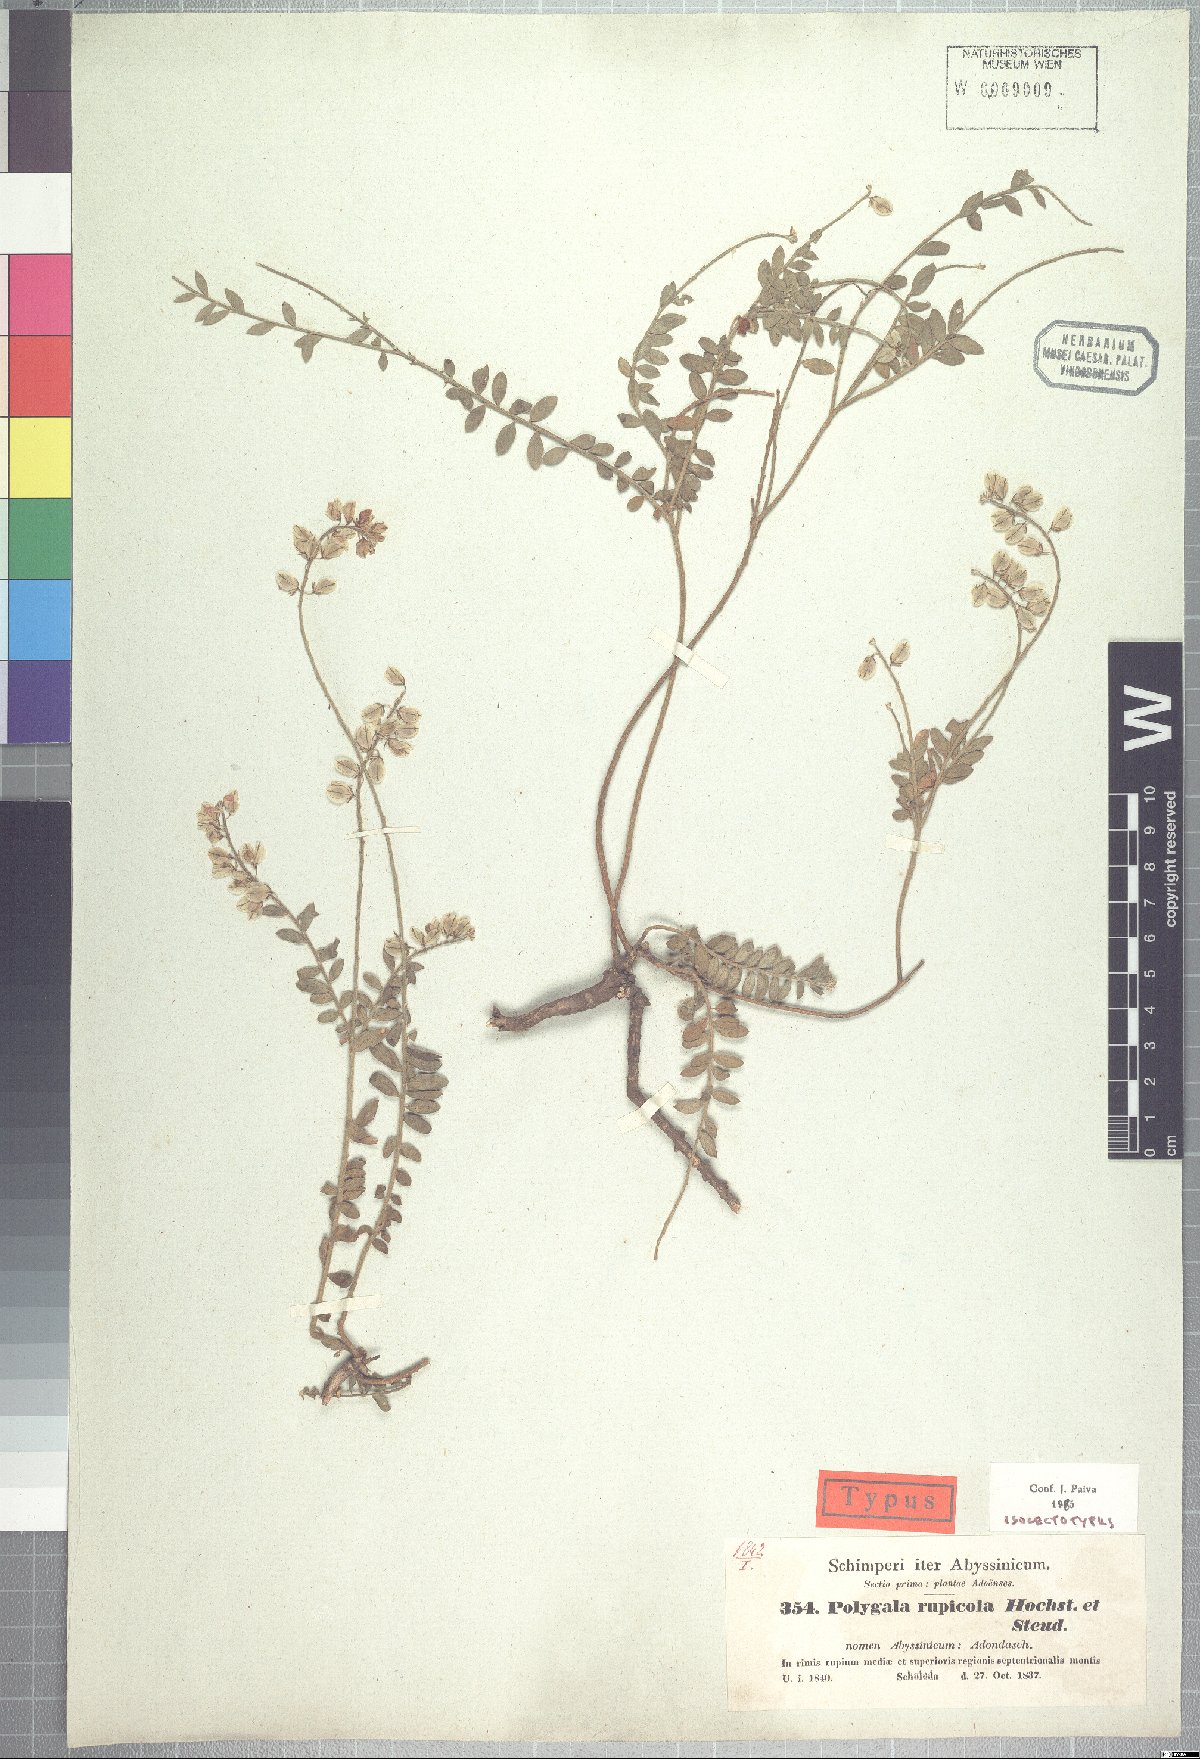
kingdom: Plantae
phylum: Tracheophyta
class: Magnoliopsida
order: Fabales
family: Polygalaceae
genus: Polygala
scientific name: Polygala rupicola
